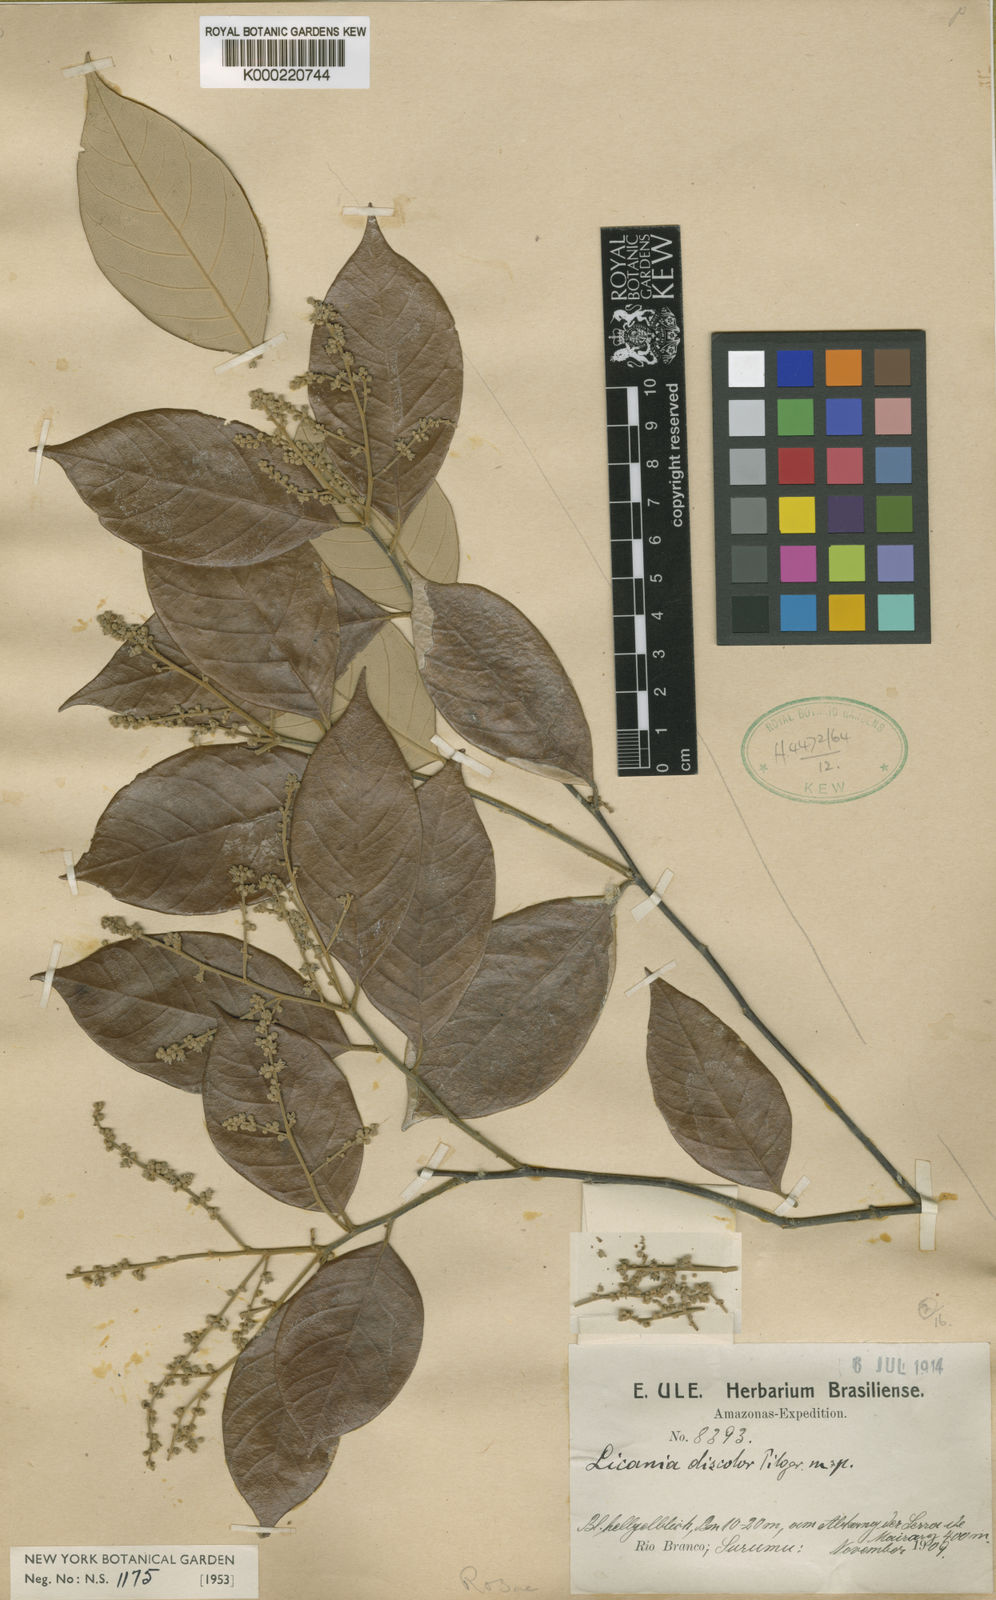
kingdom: Plantae
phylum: Tracheophyta
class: Magnoliopsida
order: Malpighiales
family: Chrysobalanaceae
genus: Licania
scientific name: Licania discolor
